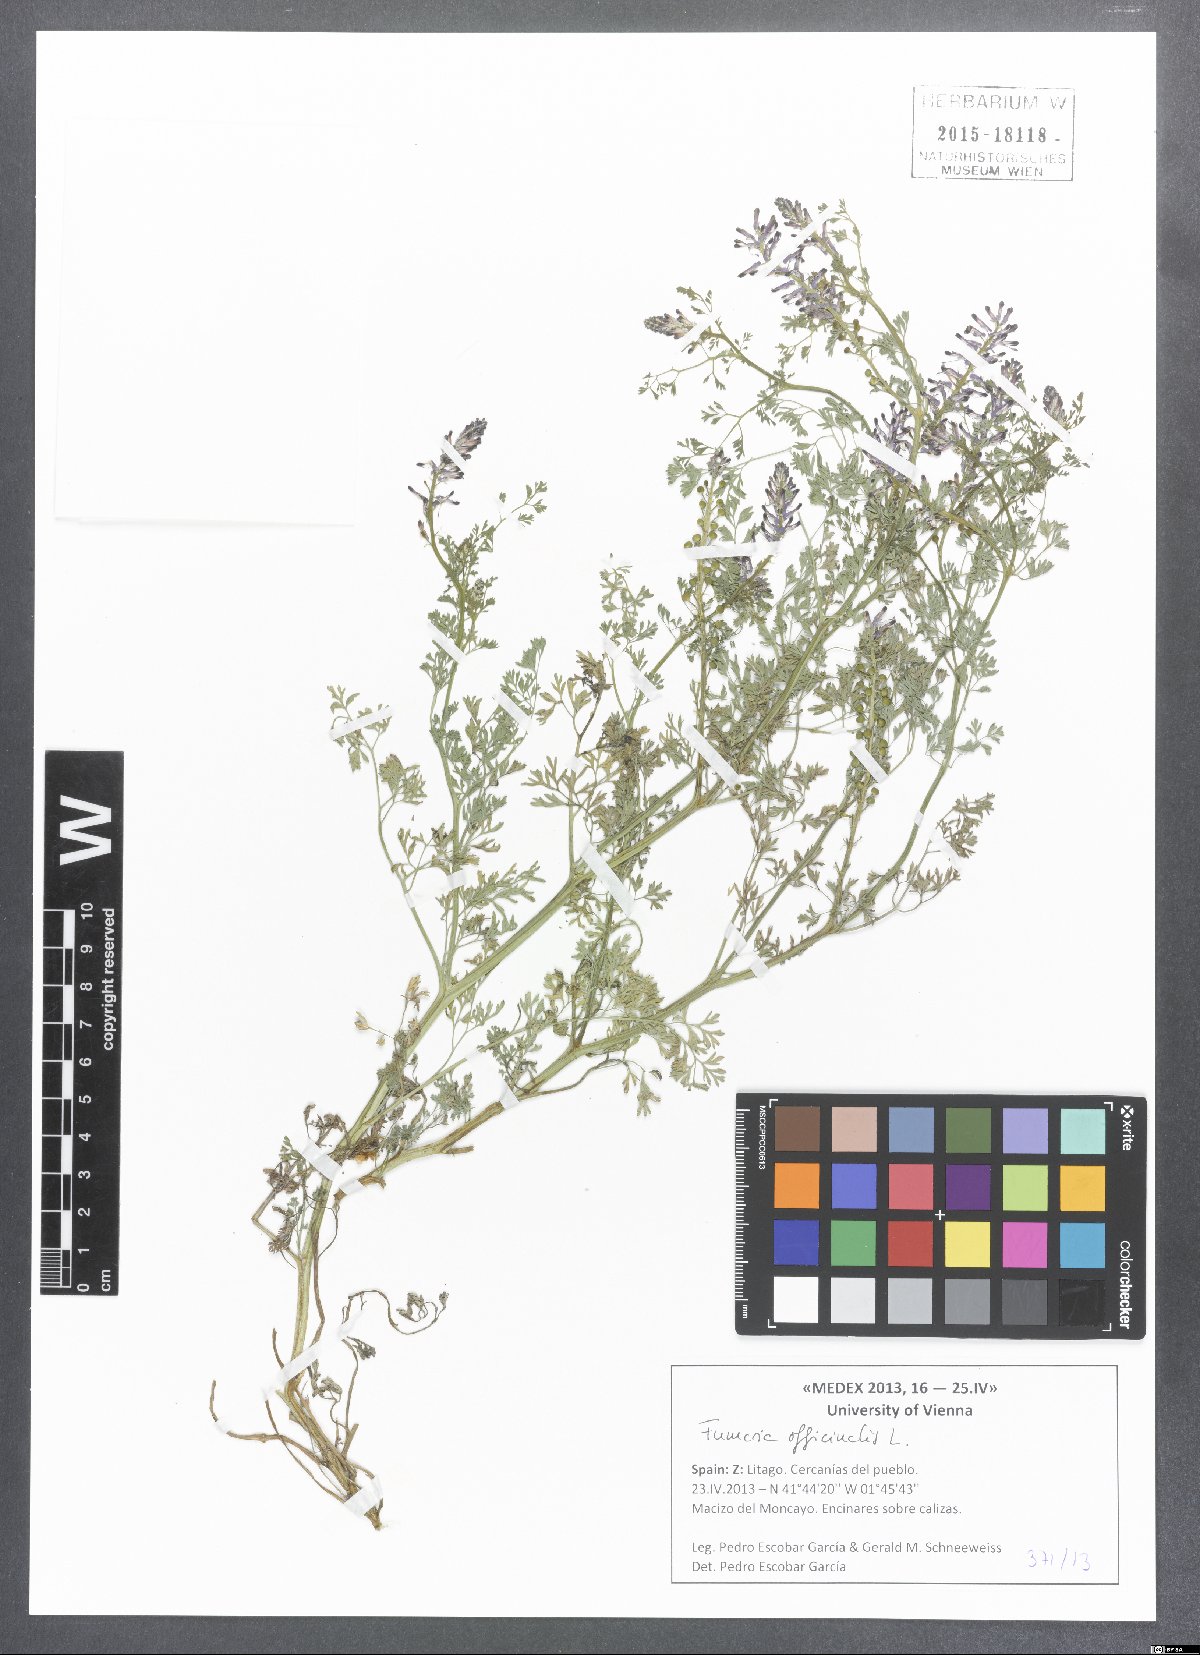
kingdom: Plantae
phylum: Tracheophyta
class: Magnoliopsida
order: Ranunculales
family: Papaveraceae
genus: Fumaria
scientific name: Fumaria officinalis
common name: Common fumitory
